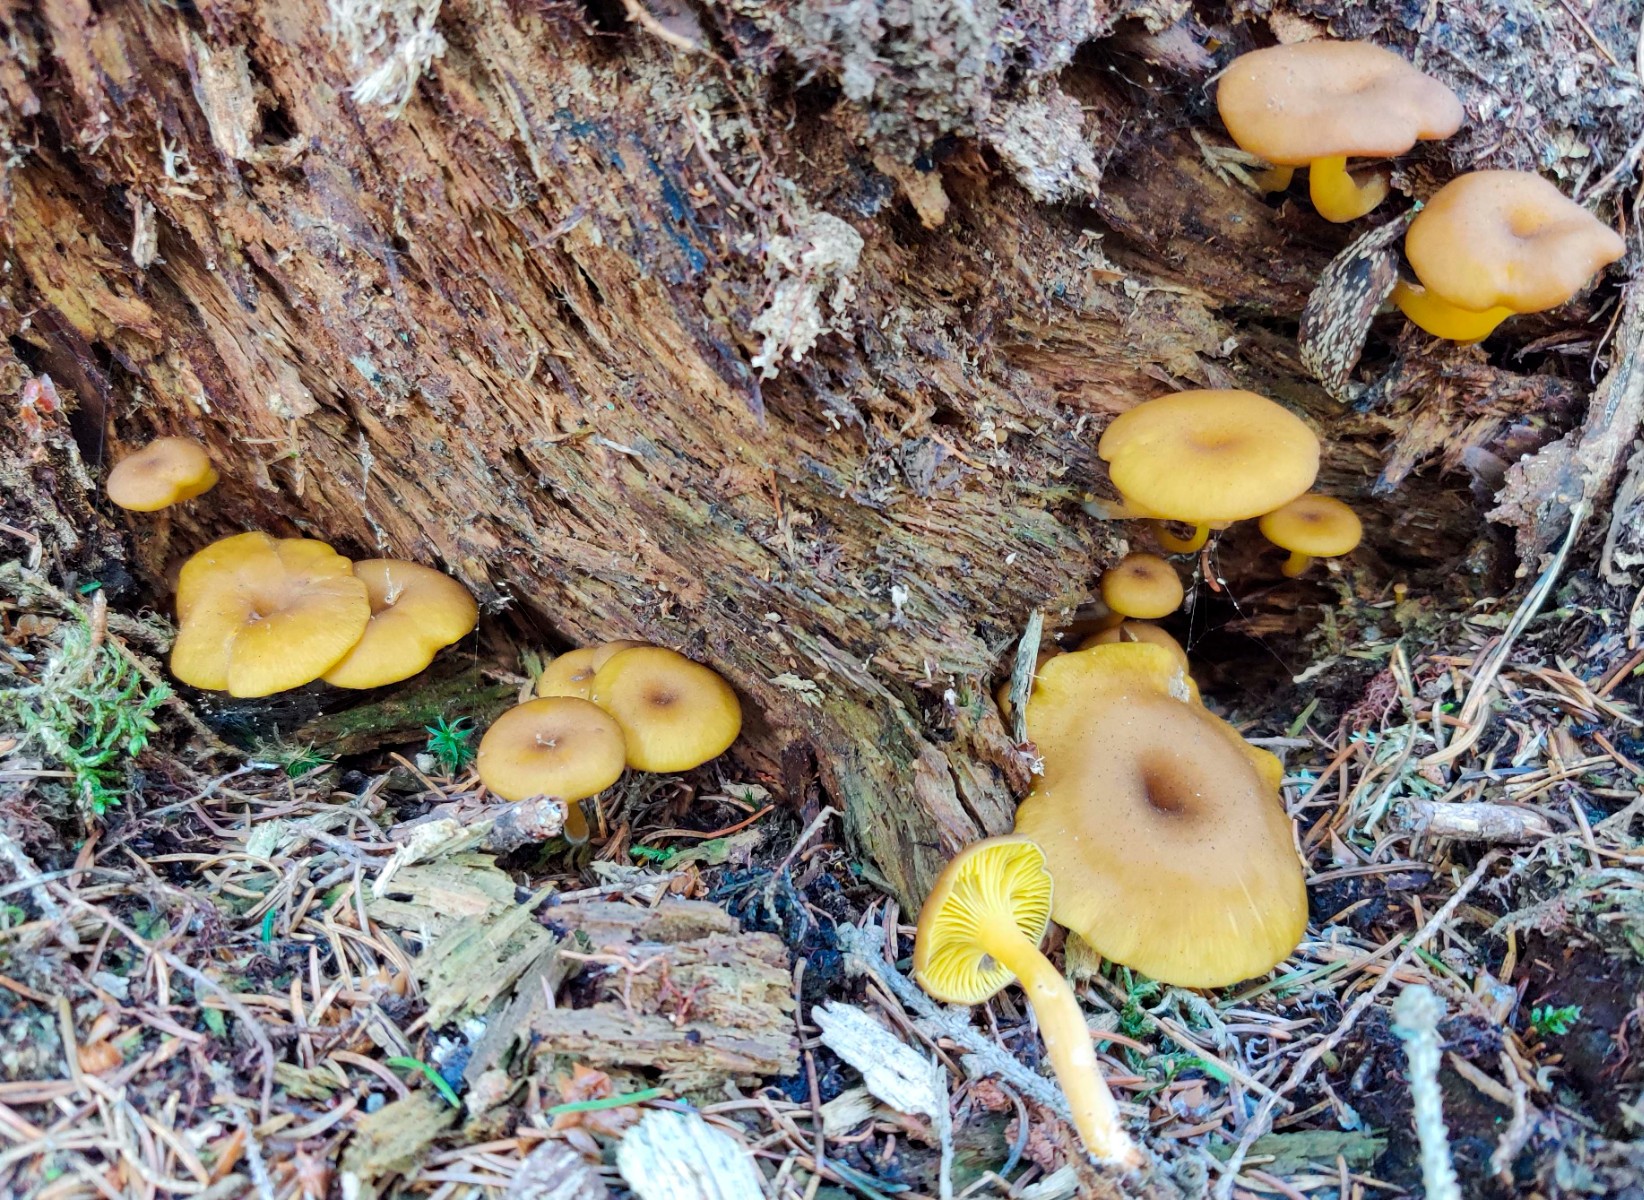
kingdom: Fungi
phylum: Basidiomycota
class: Agaricomycetes
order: Agaricales
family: Hygrophoraceae
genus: Chrysomphalina
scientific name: Chrysomphalina chrysophylla
